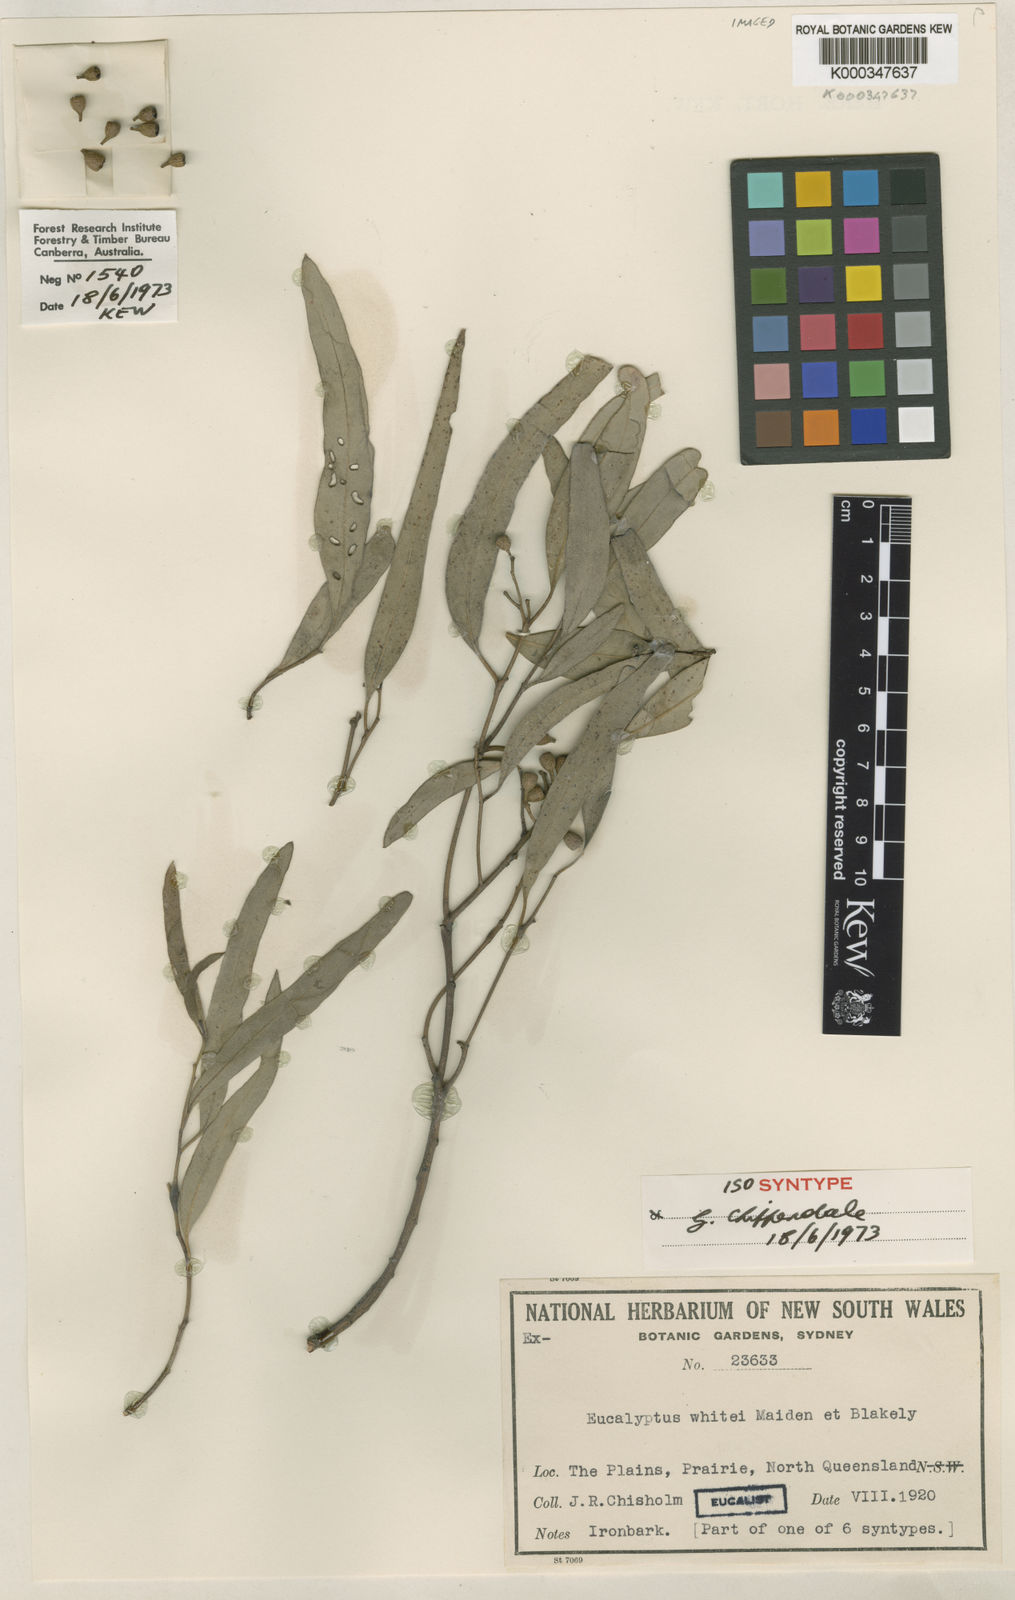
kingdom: Plantae
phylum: Tracheophyta
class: Magnoliopsida
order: Myrtales
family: Myrtaceae
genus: Eucalyptus
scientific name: Eucalyptus whitei
